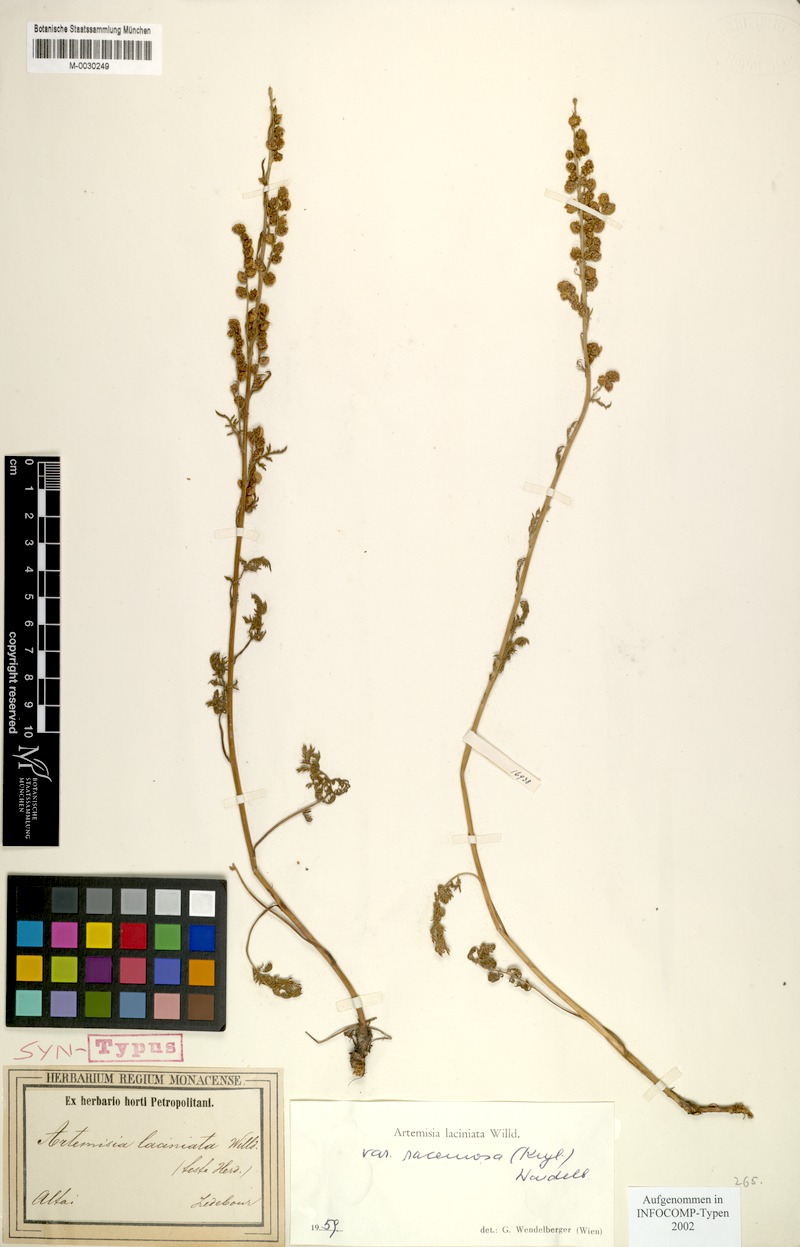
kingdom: Plantae
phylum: Tracheophyta
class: Magnoliopsida
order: Asterales
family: Asteraceae
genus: Artemisia
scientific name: Artemisia laciniata
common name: Siberian wormwood
